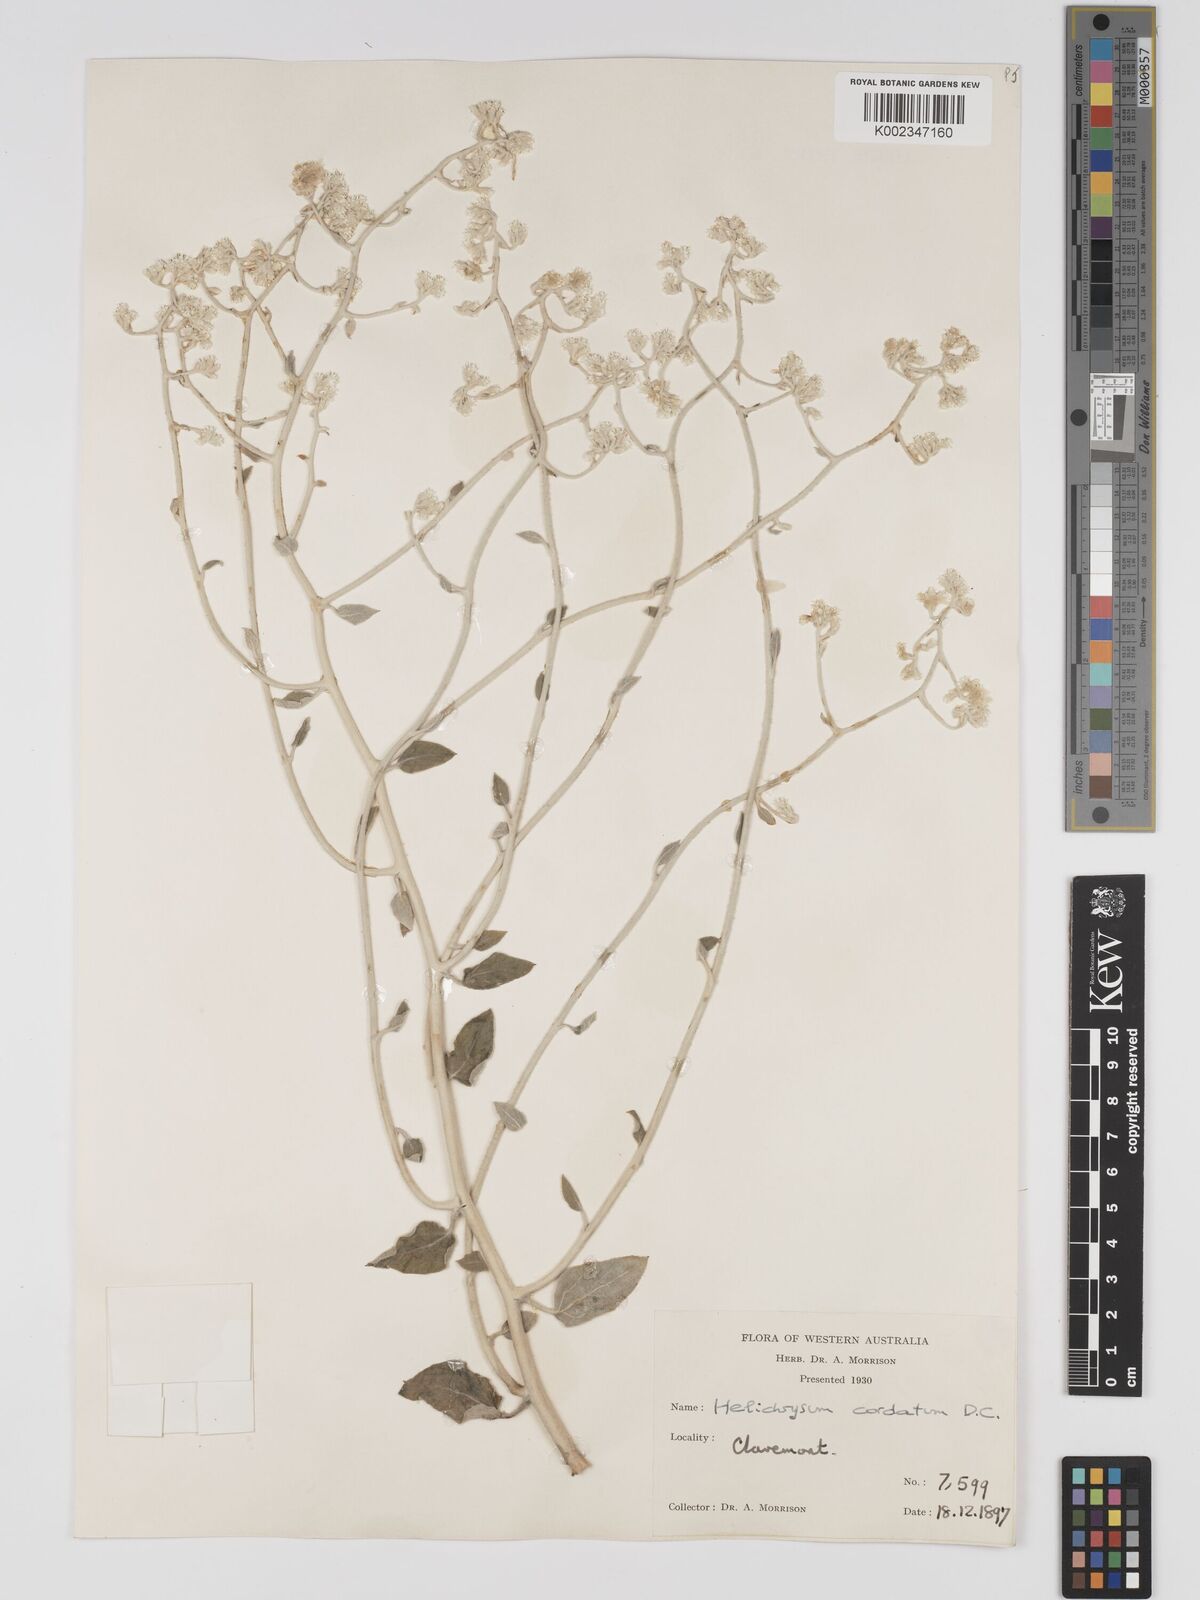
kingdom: Plantae
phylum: Tracheophyta
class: Magnoliopsida
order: Asterales
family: Asteraceae
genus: Ozothamnus
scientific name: Ozothamnus
